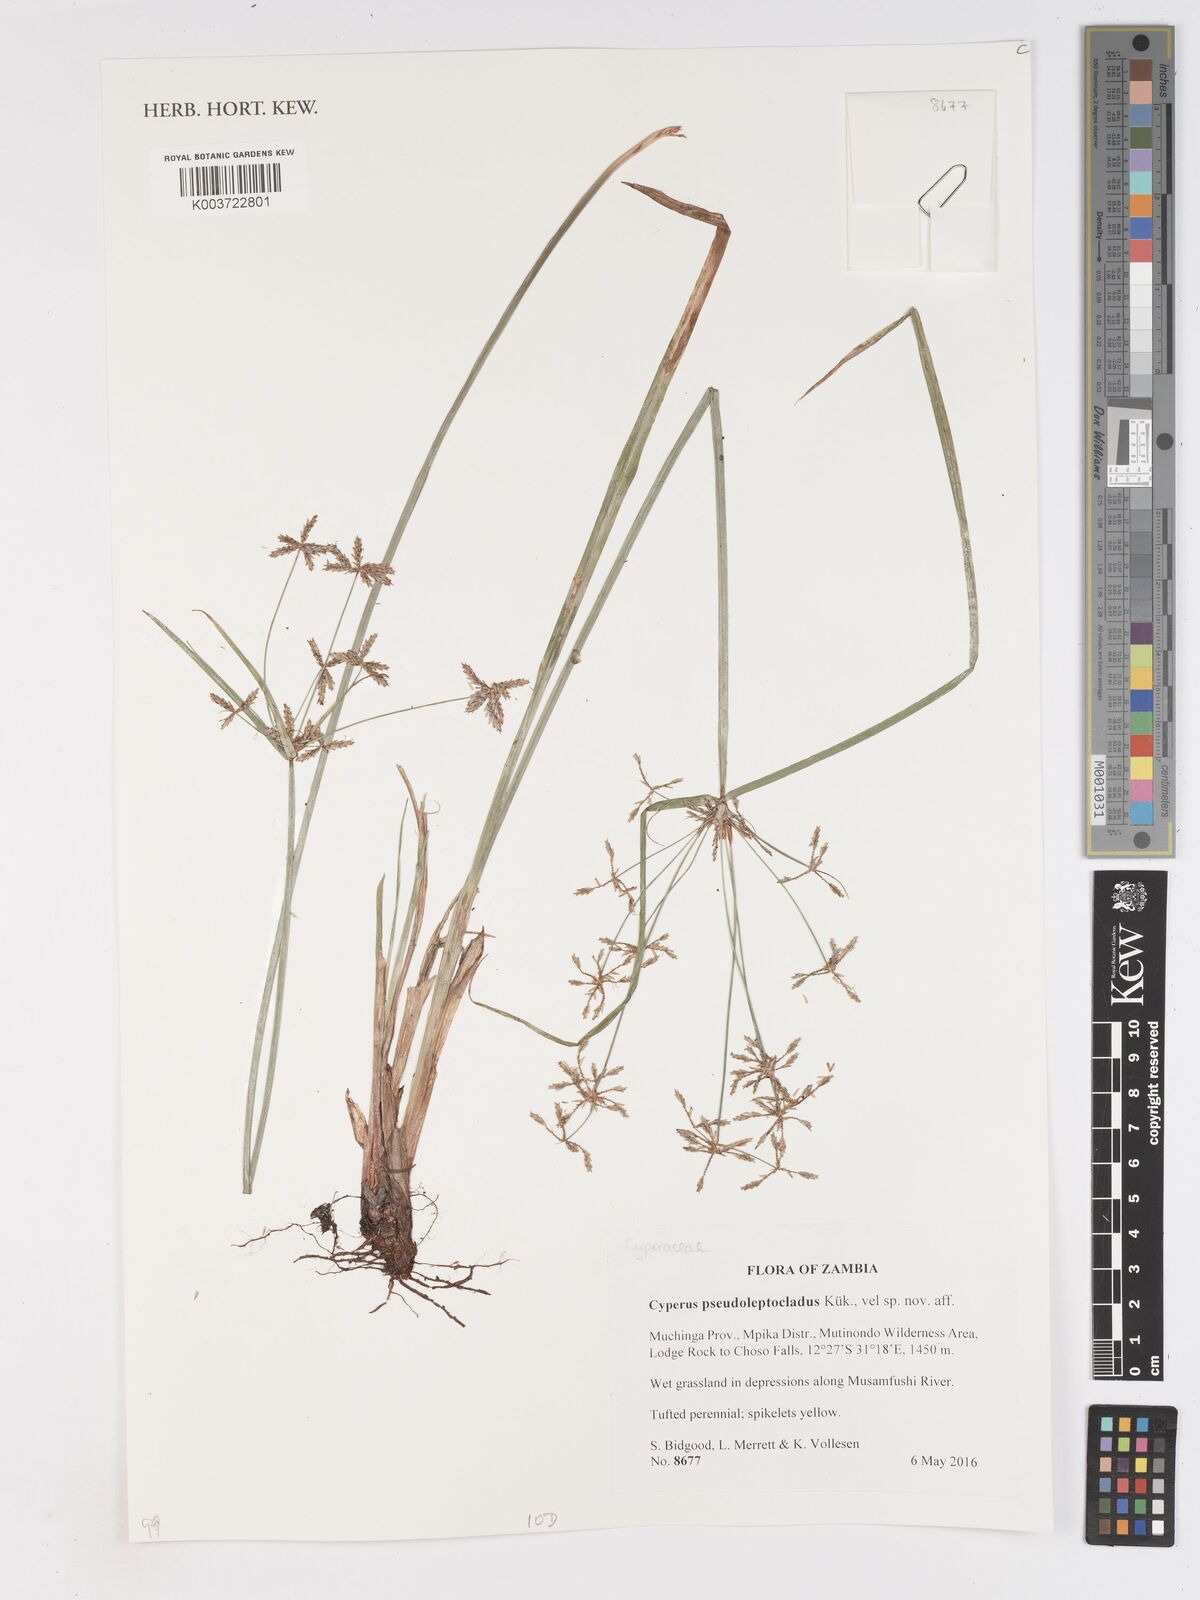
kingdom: Plantae
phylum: Tracheophyta
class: Liliopsida
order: Poales
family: Cyperaceae
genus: Cyperus
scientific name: Cyperus glaucophyllus
